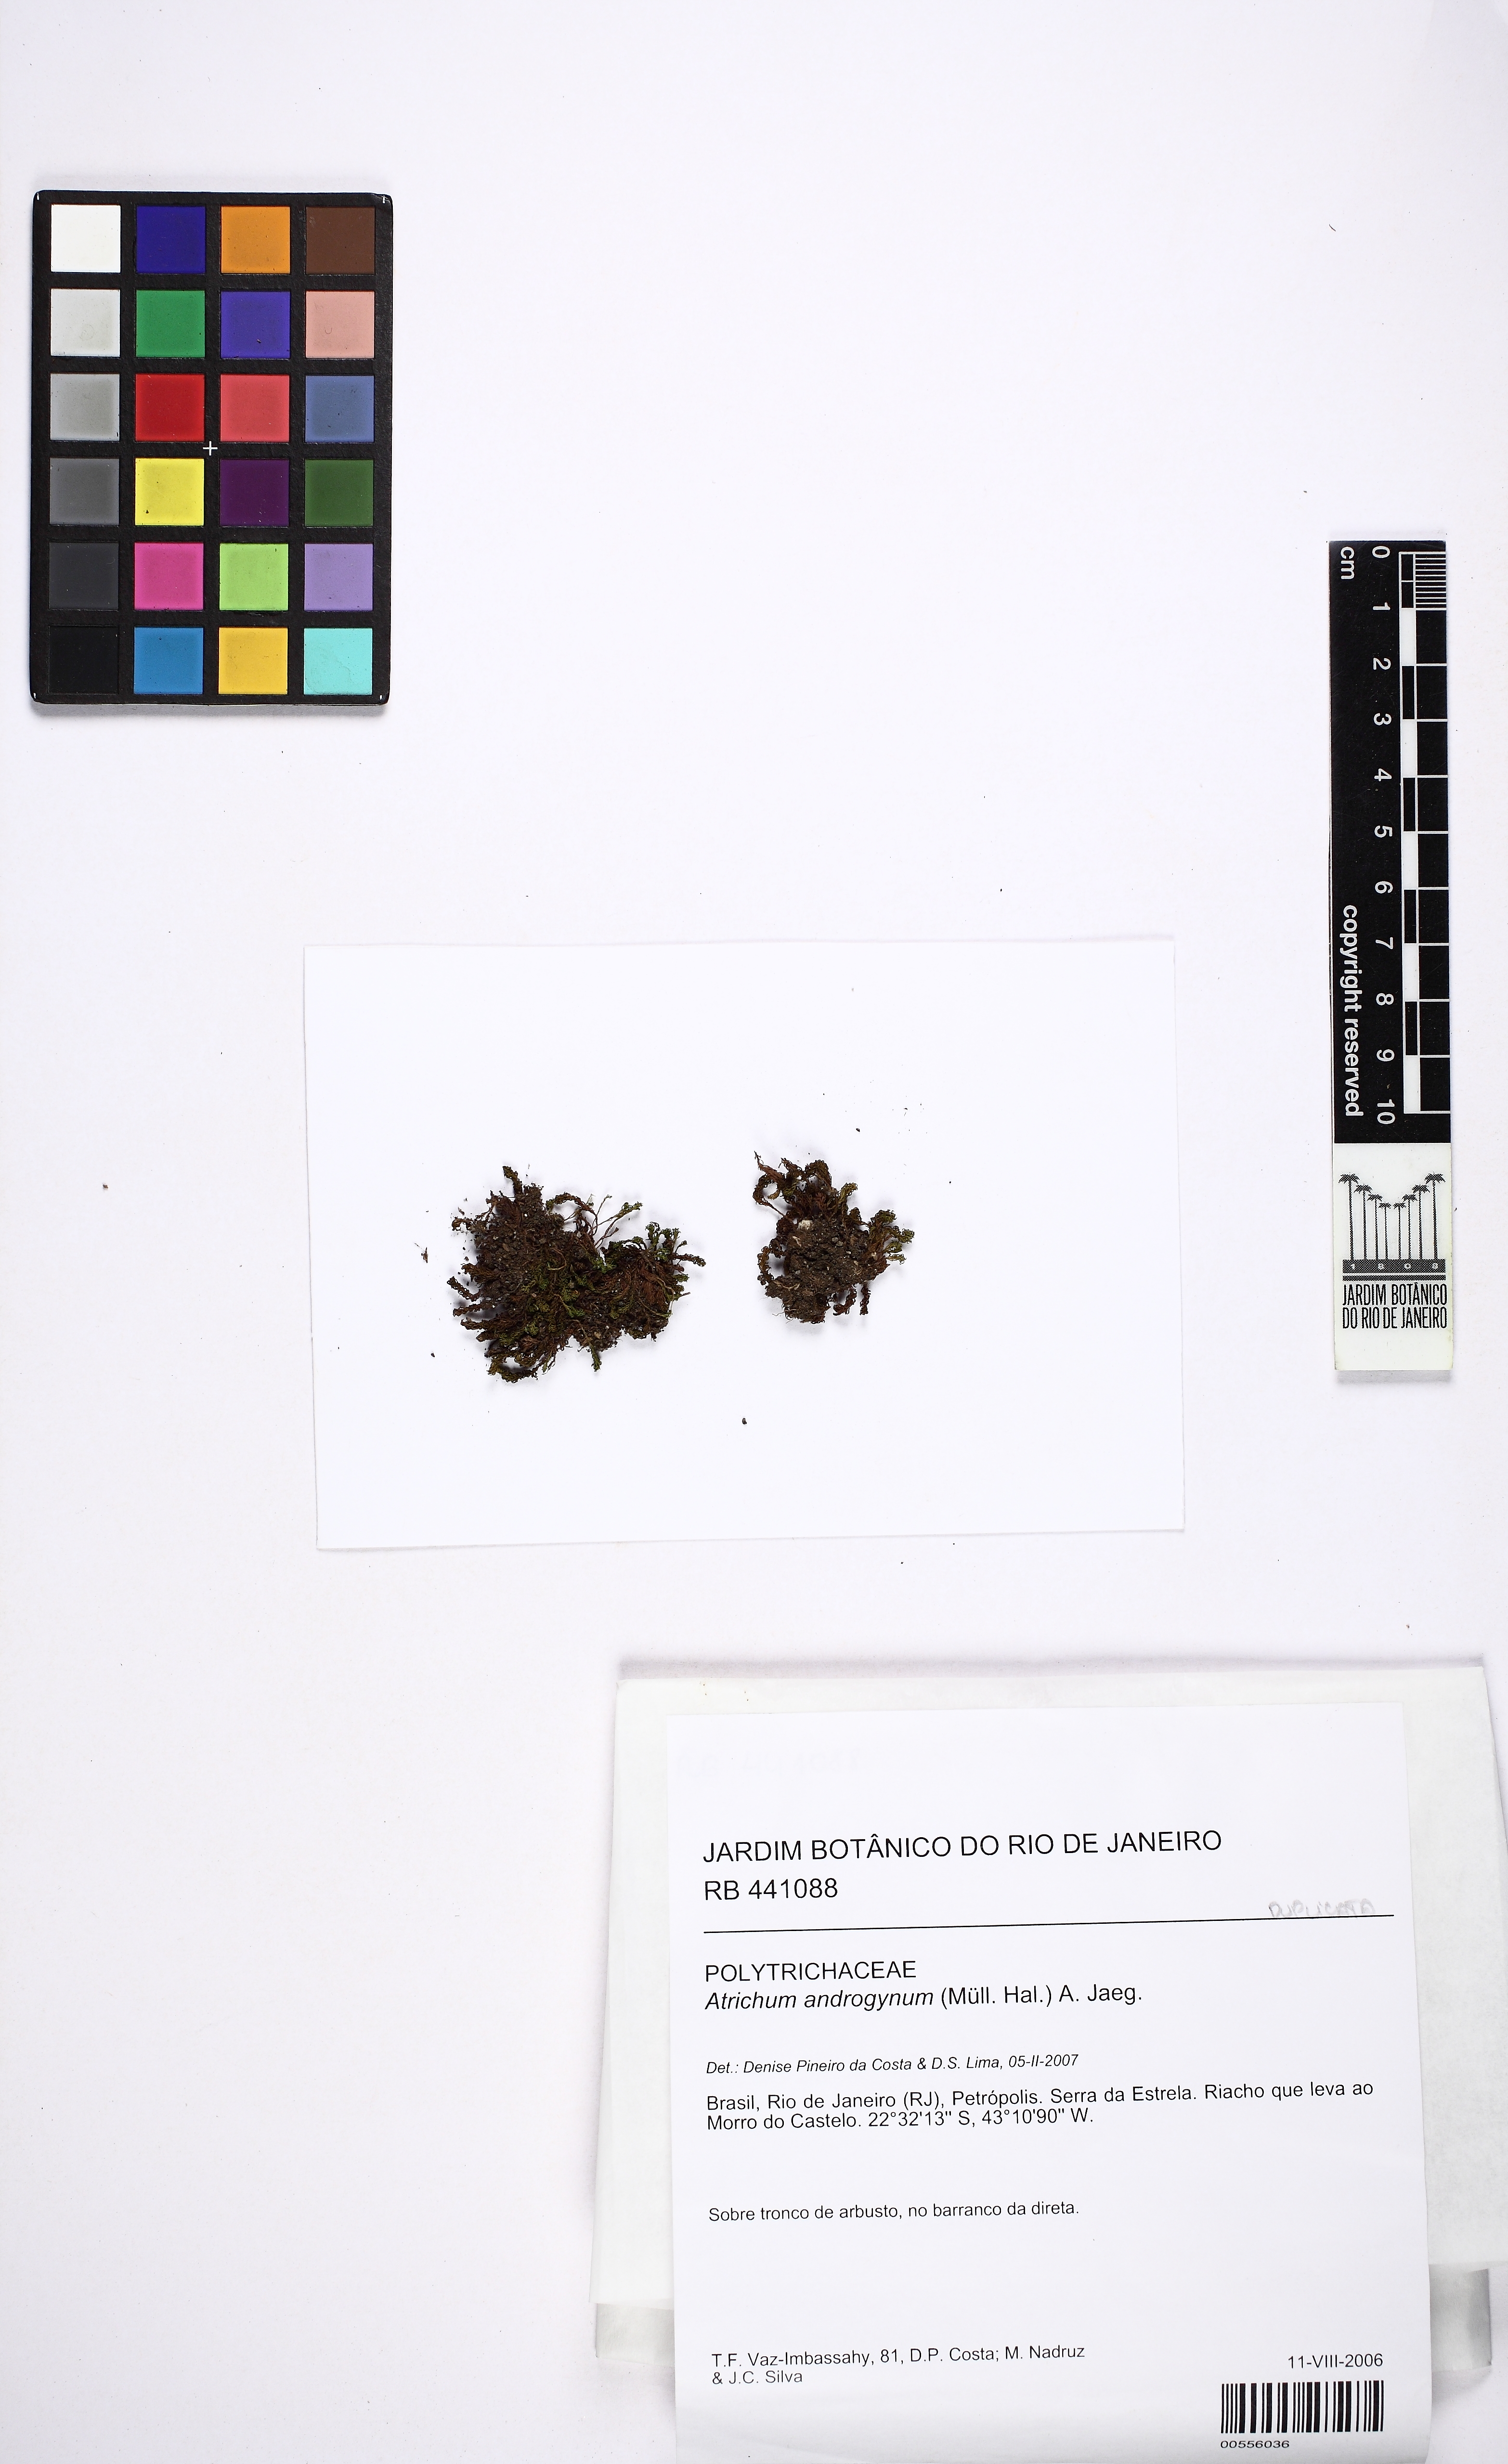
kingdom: Plantae
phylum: Bryophyta
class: Polytrichopsida
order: Polytrichales
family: Polytrichaceae
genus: Atrichum
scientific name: Atrichum androgynum
